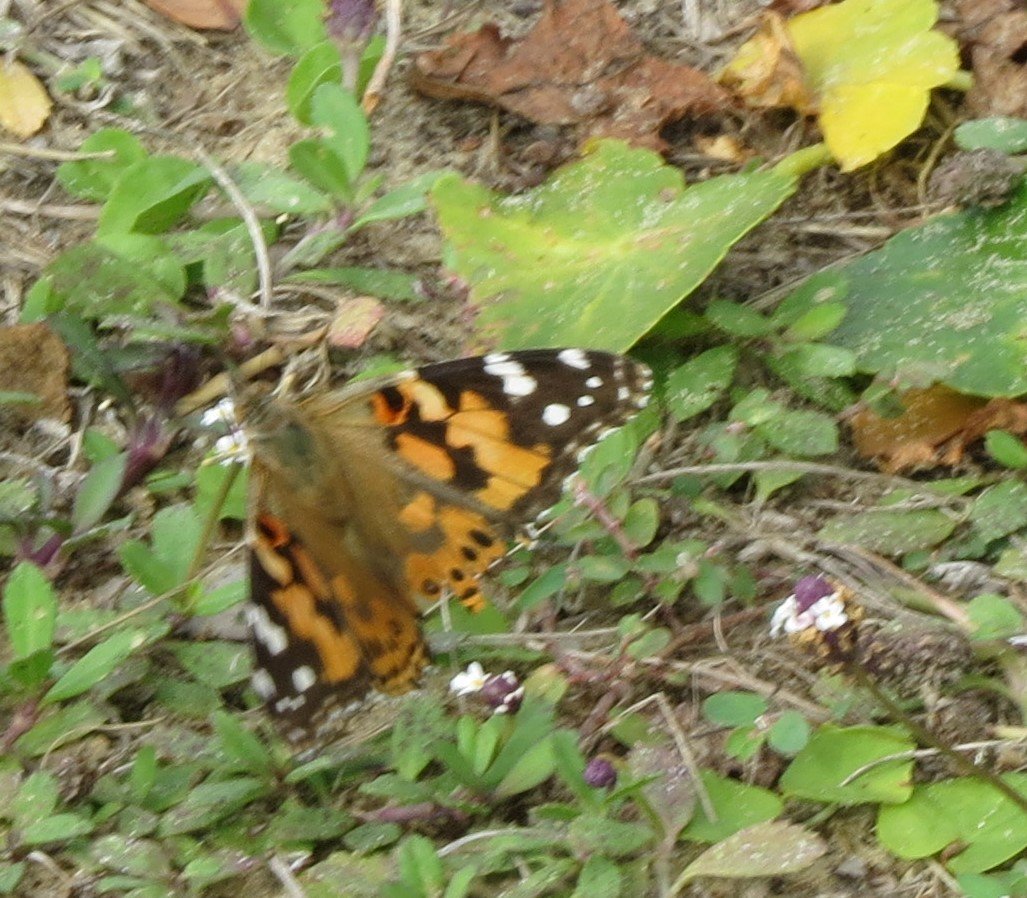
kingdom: Animalia
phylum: Arthropoda
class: Insecta
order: Lepidoptera
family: Nymphalidae
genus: Vanessa
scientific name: Vanessa cardui
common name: Painted Lady
